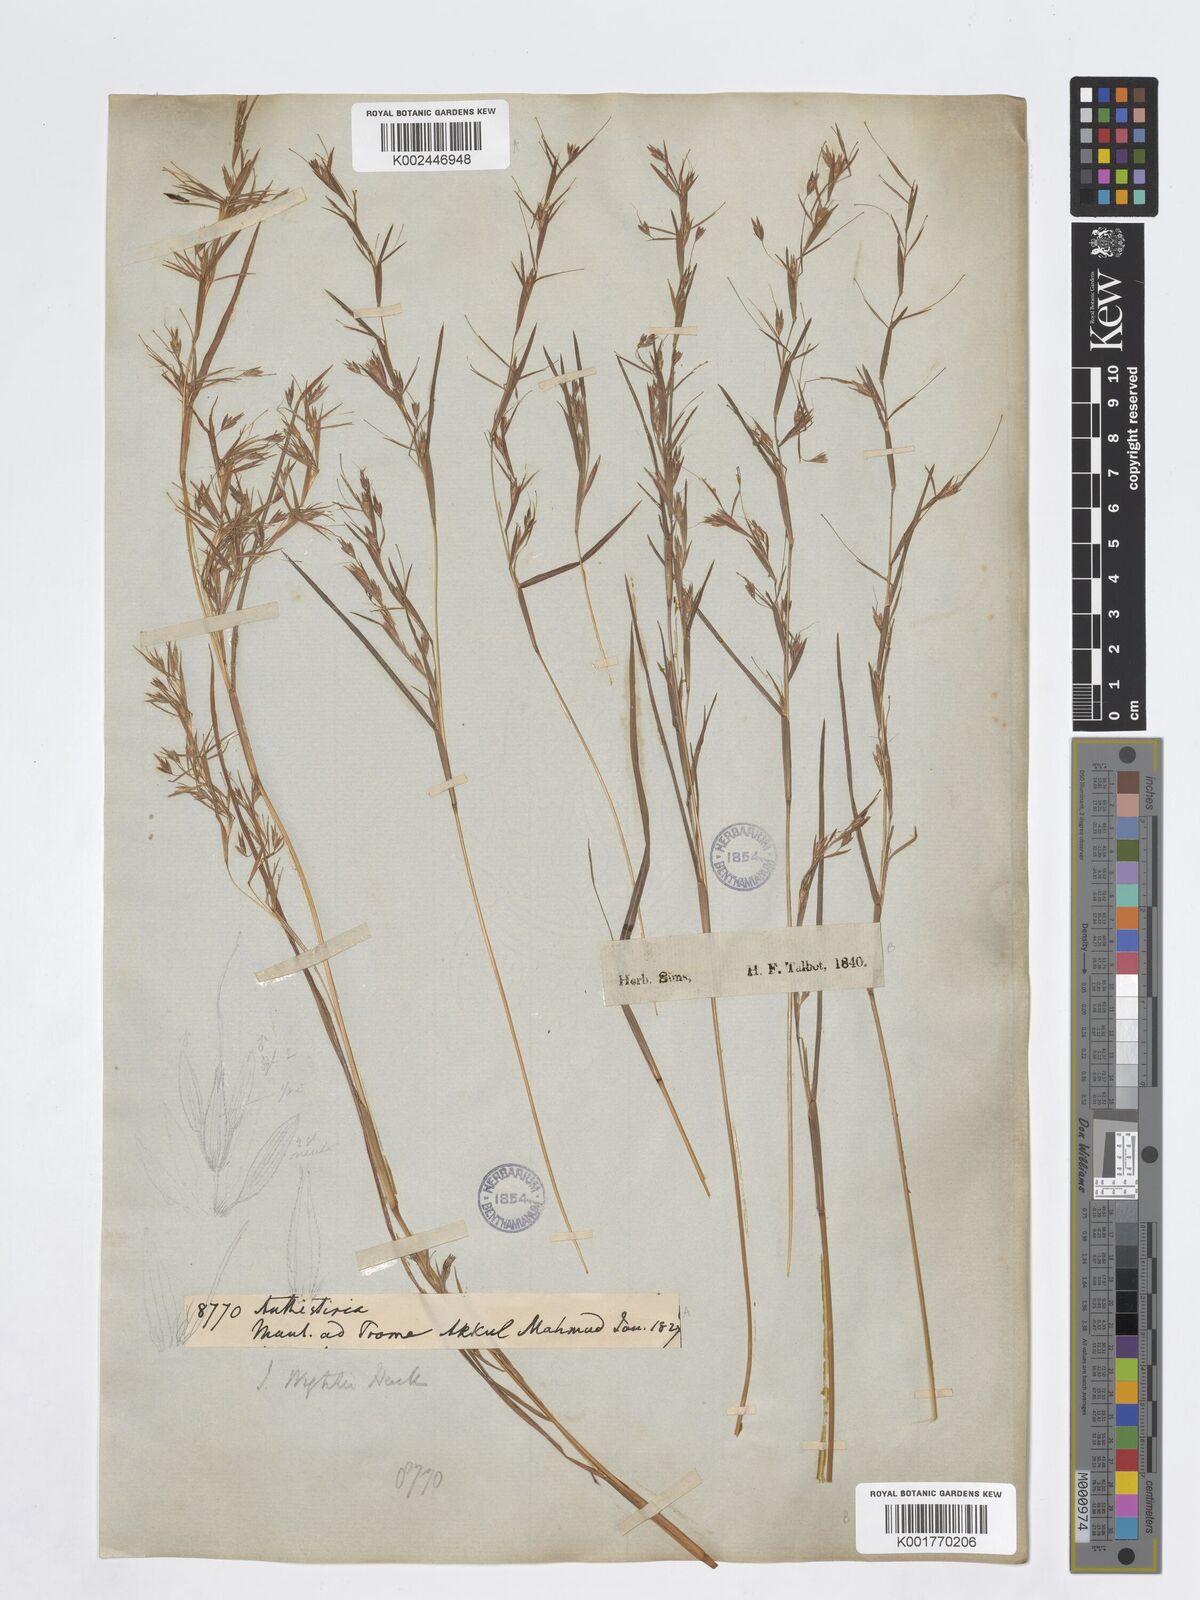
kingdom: Plantae
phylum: Tracheophyta
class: Liliopsida
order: Poales
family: Poaceae
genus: Iseilema
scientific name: Iseilema prostratum
